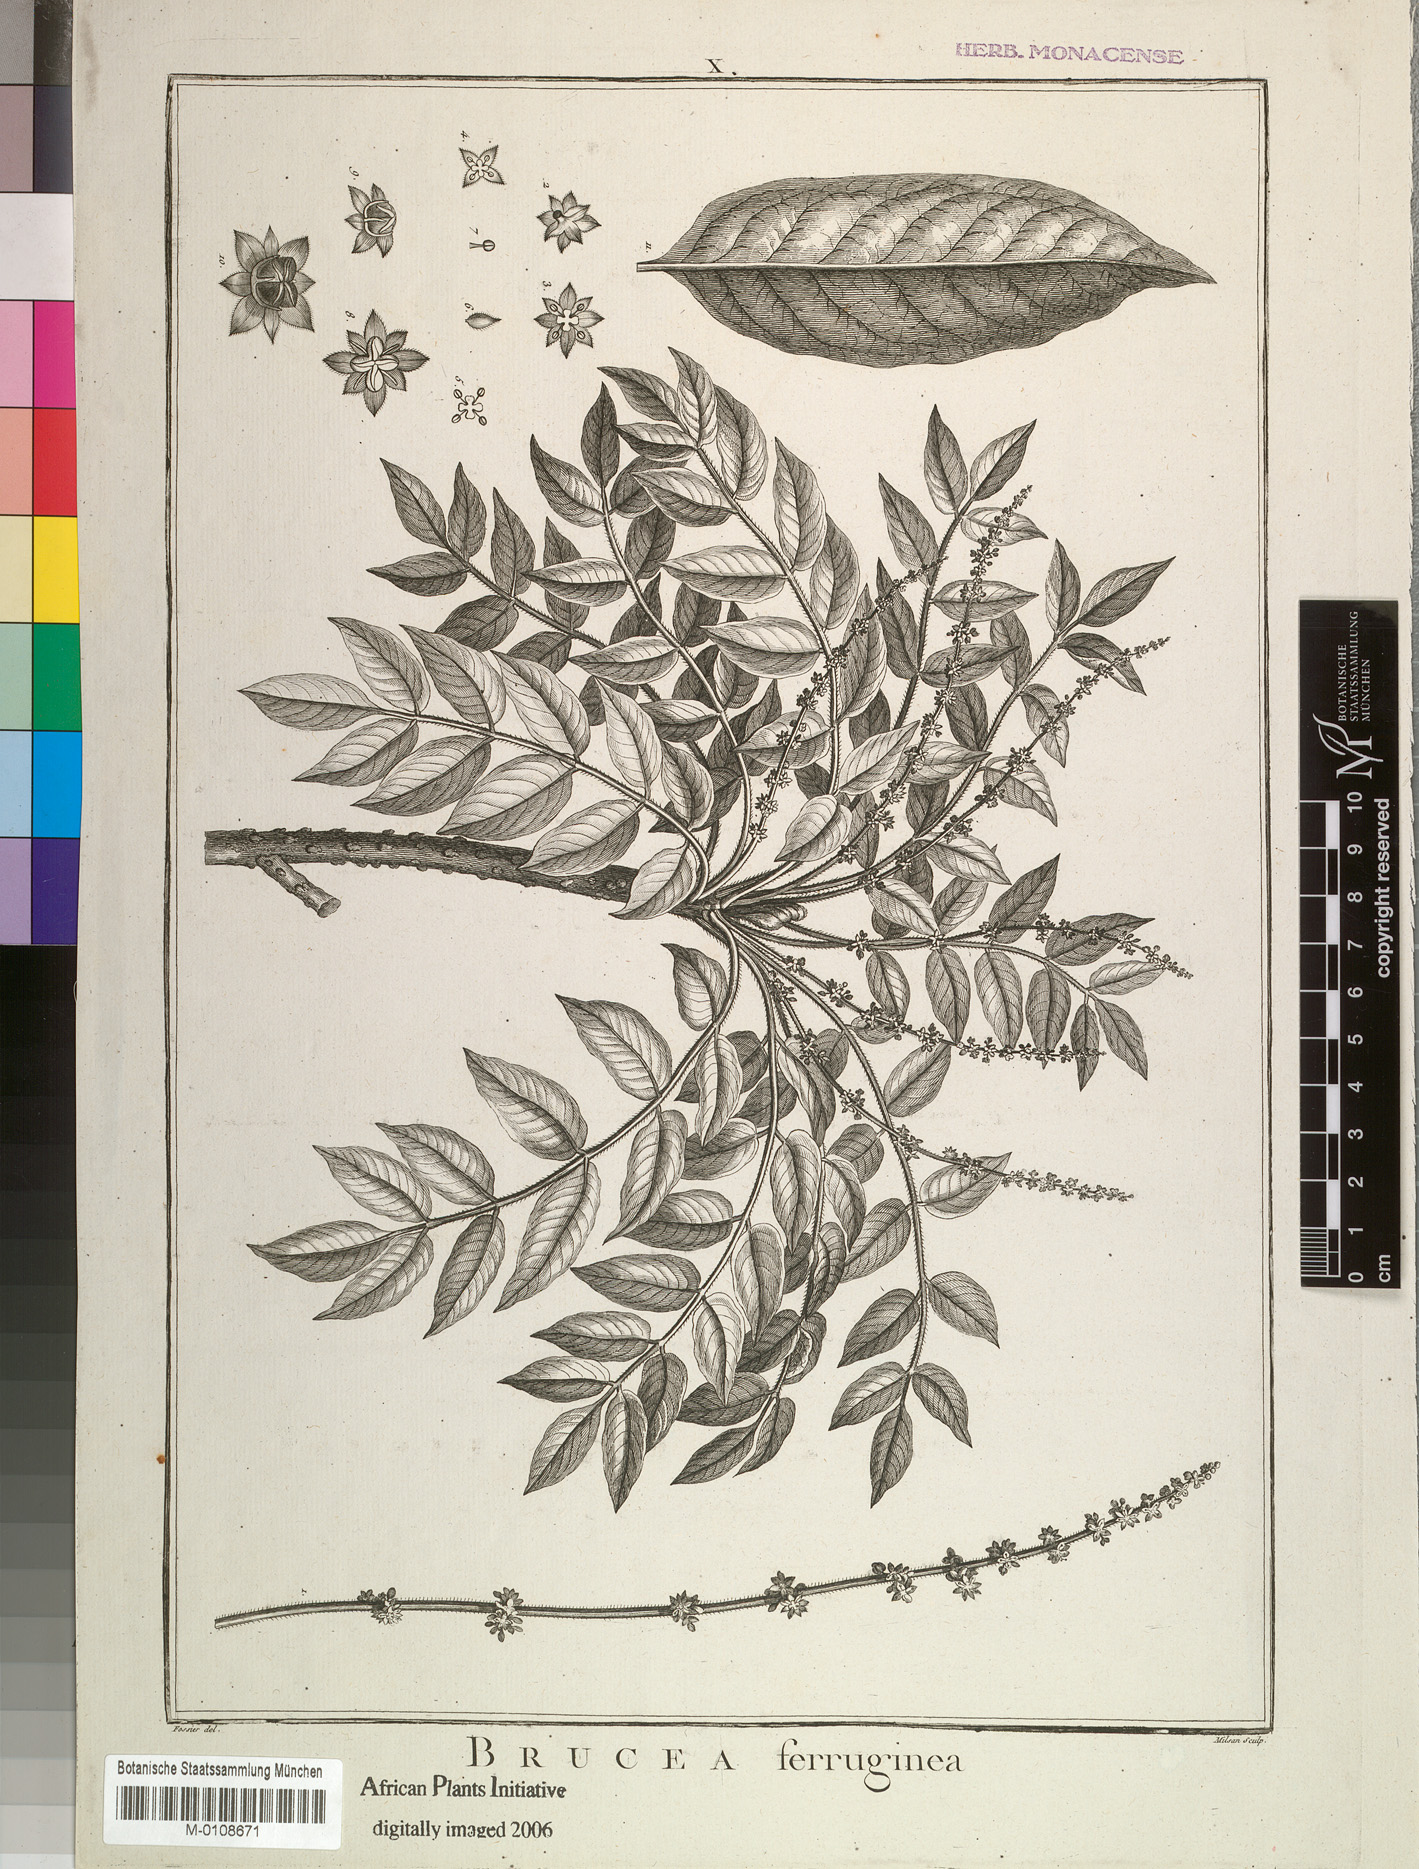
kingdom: Plantae
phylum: Tracheophyta
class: Magnoliopsida
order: Sapindales
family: Simaroubaceae
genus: Brucea
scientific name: Brucea antidysenterica
